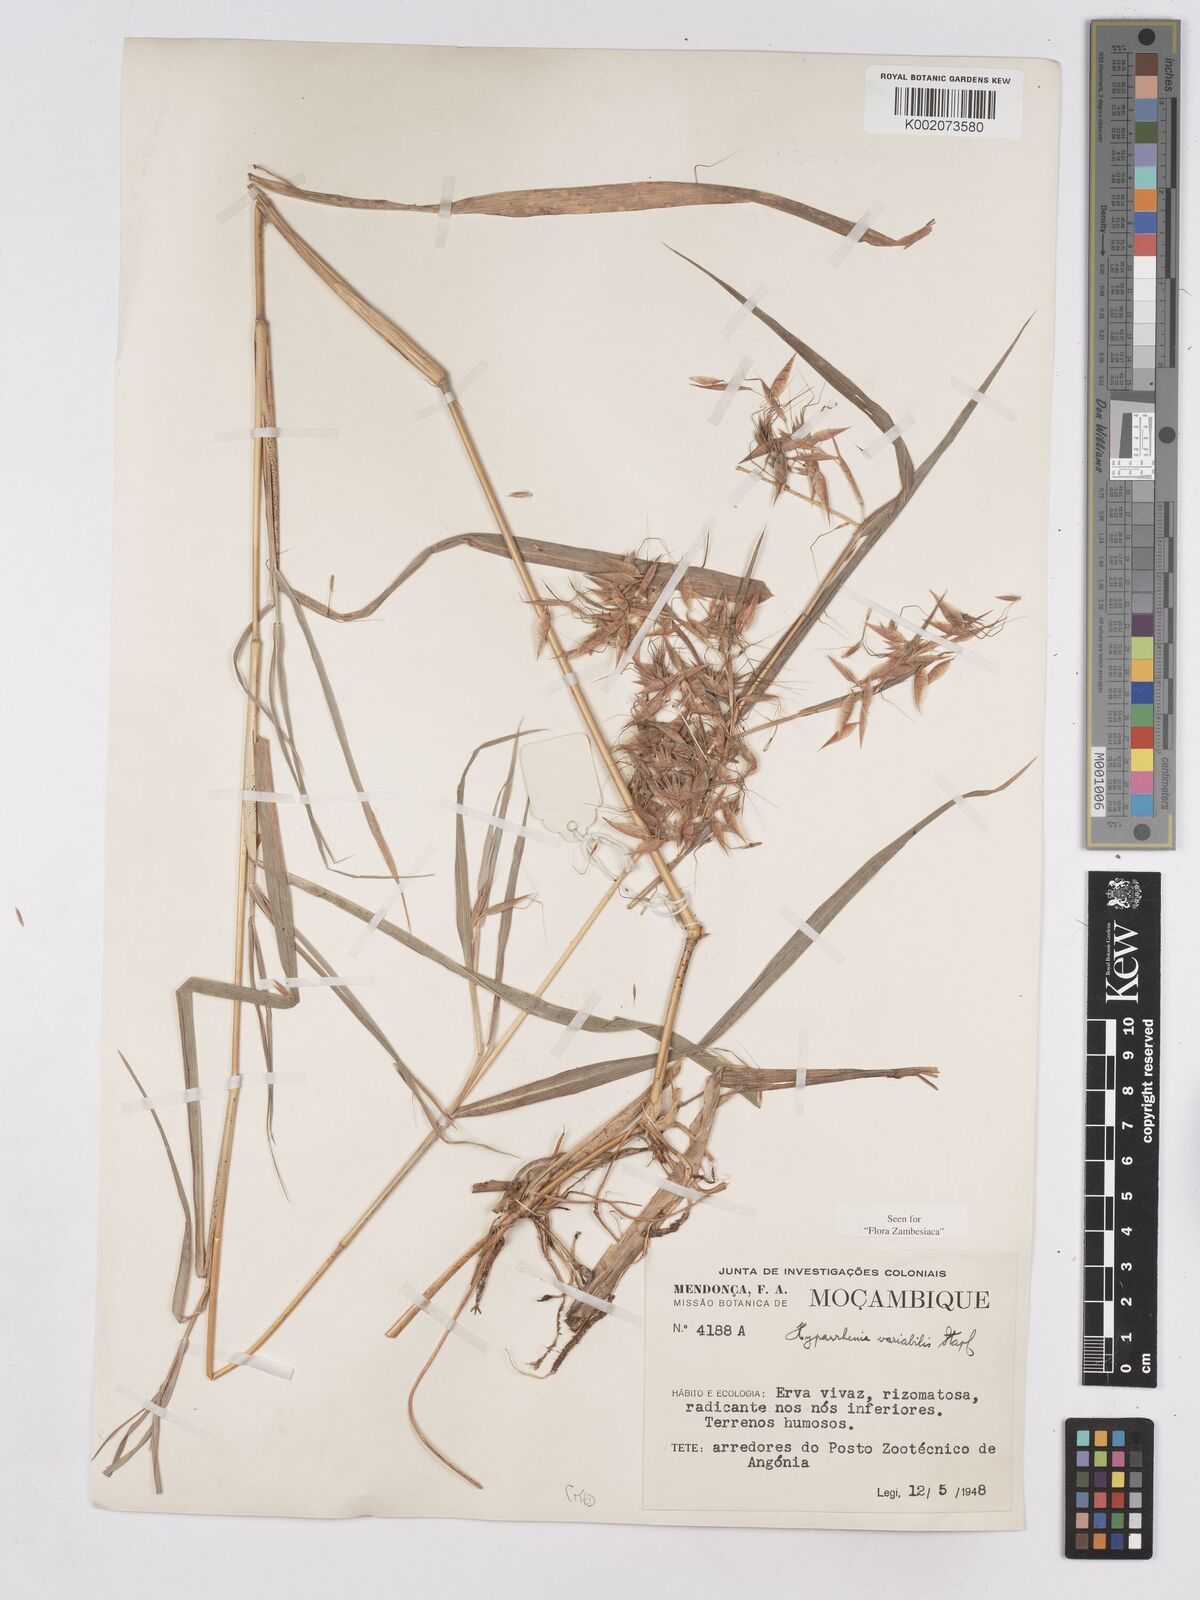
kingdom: Plantae
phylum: Tracheophyta
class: Liliopsida
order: Poales
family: Poaceae
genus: Hyparrhenia
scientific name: Hyparrhenia variabilis
